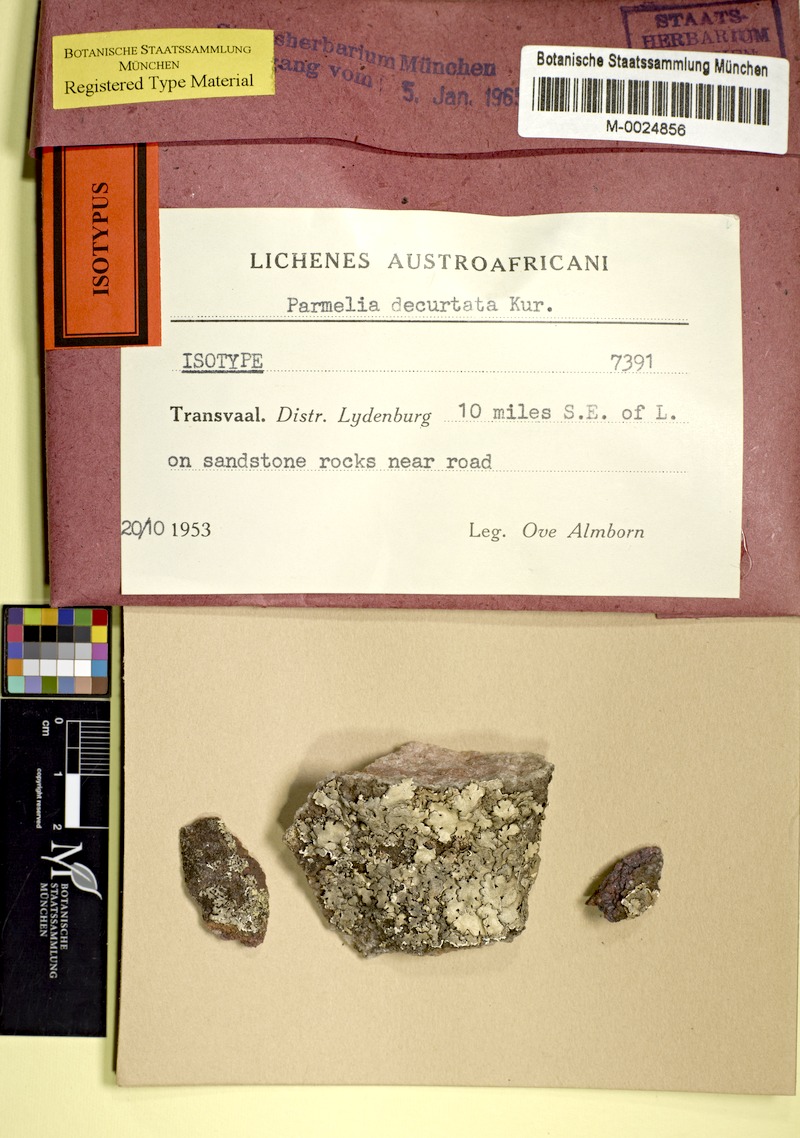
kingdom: Fungi
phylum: Ascomycota
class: Lecanoromycetes
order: Lecanorales
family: Parmeliaceae
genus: Bulbothrix
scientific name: Bulbothrix decurtata
